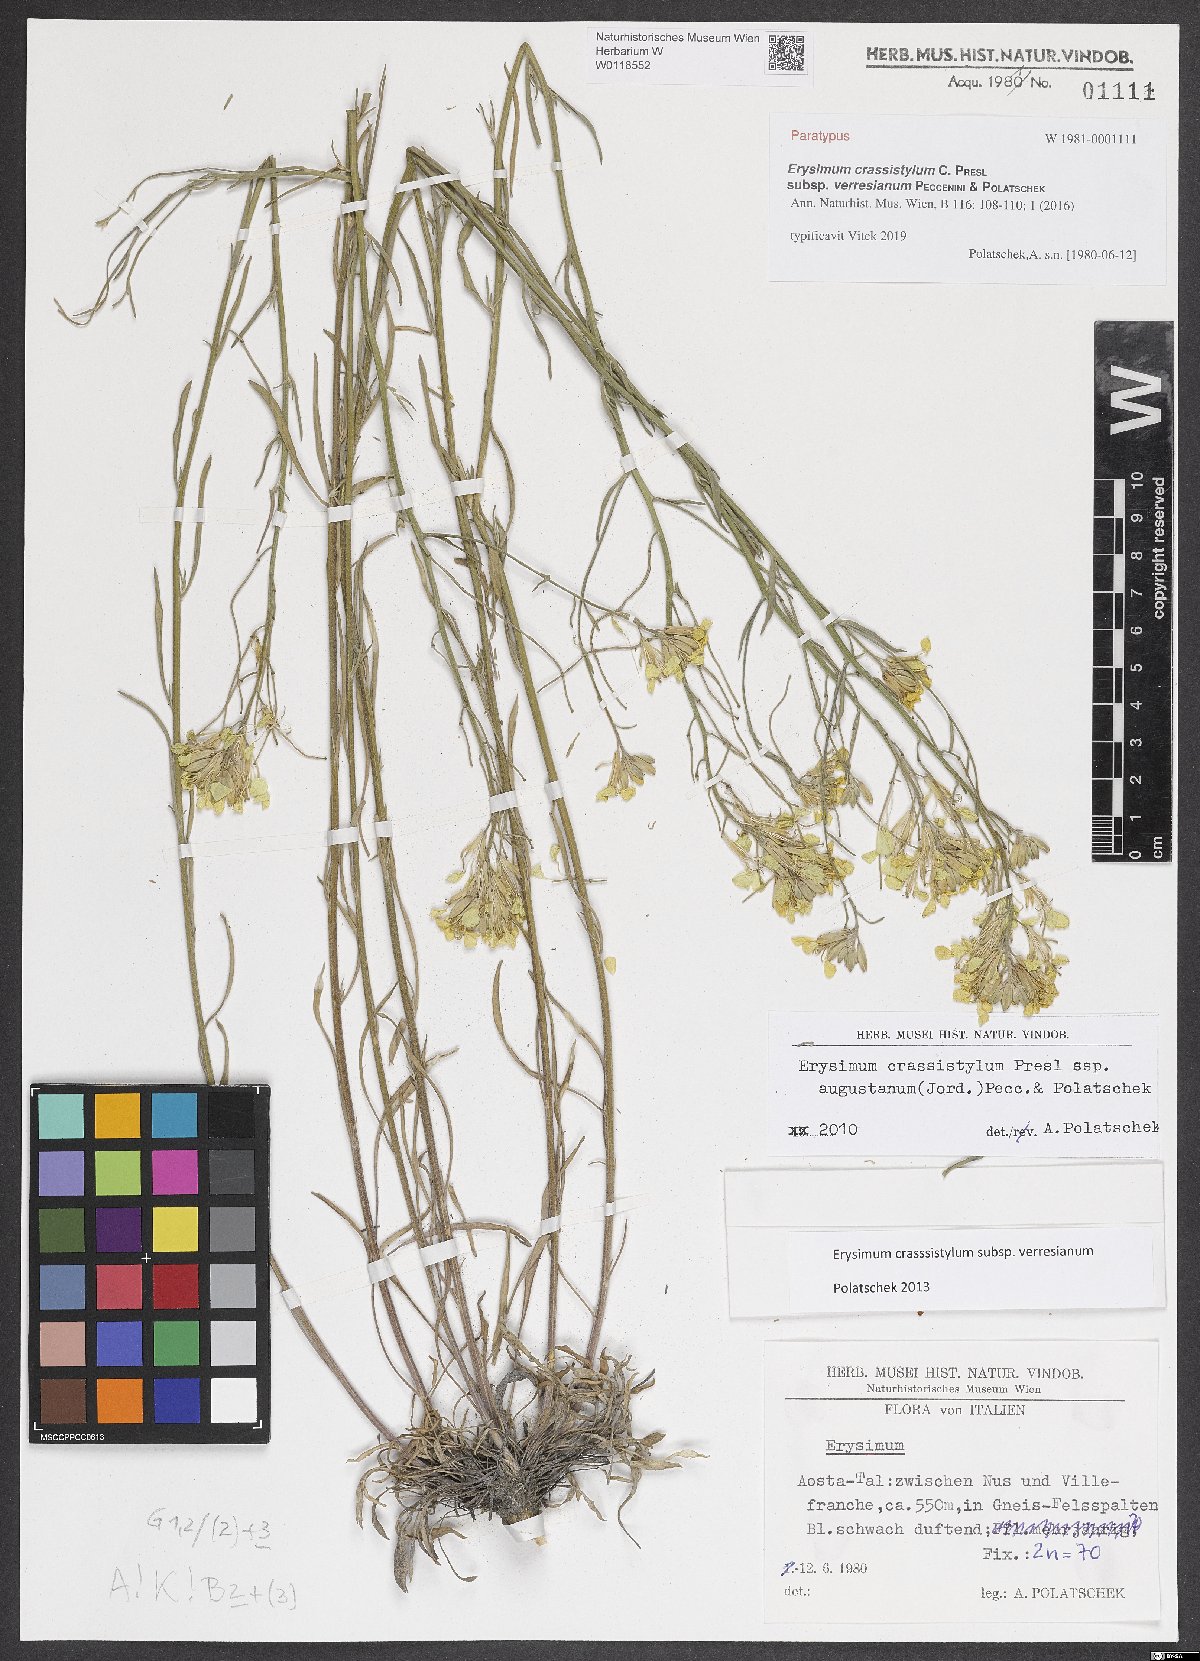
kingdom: Plantae
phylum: Tracheophyta
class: Magnoliopsida
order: Brassicales
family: Brassicaceae
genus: Erysimum
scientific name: Erysimum crassistylum
